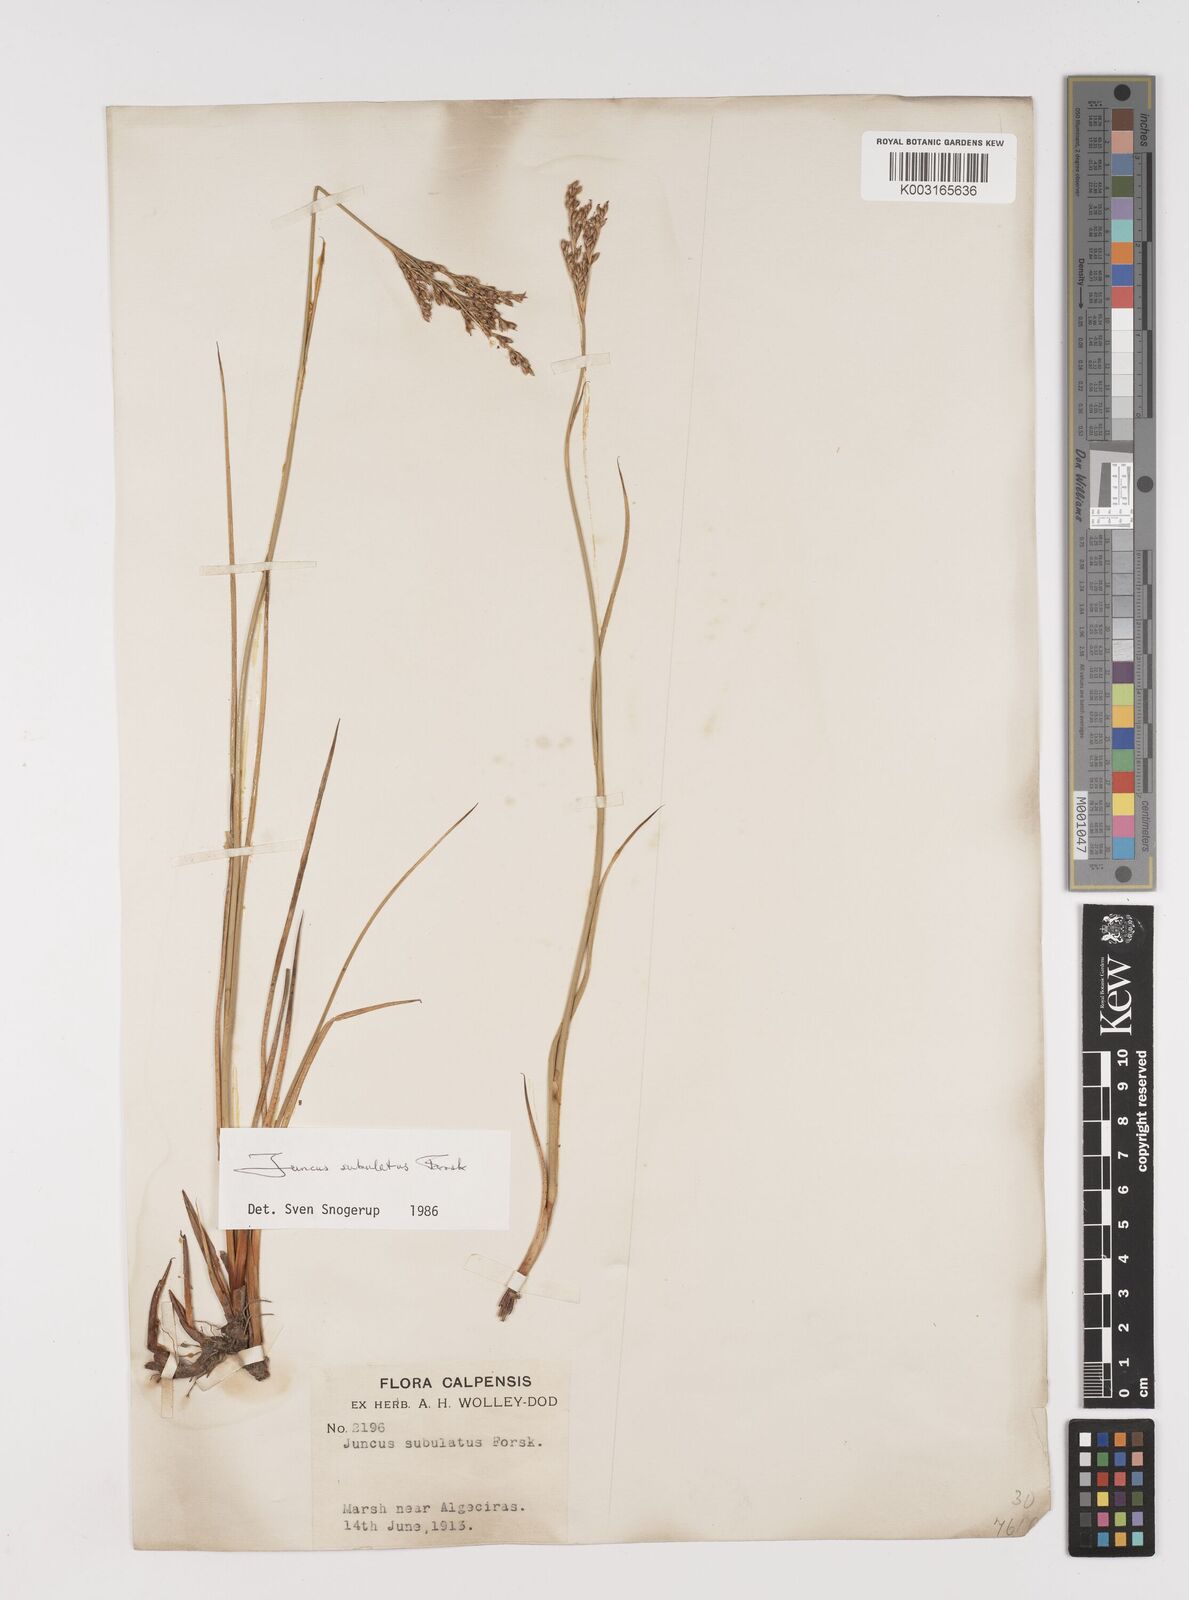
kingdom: Plantae
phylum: Tracheophyta
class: Liliopsida
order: Poales
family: Juncaceae
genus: Juncus
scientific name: Juncus subulatus
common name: Somerset rush
